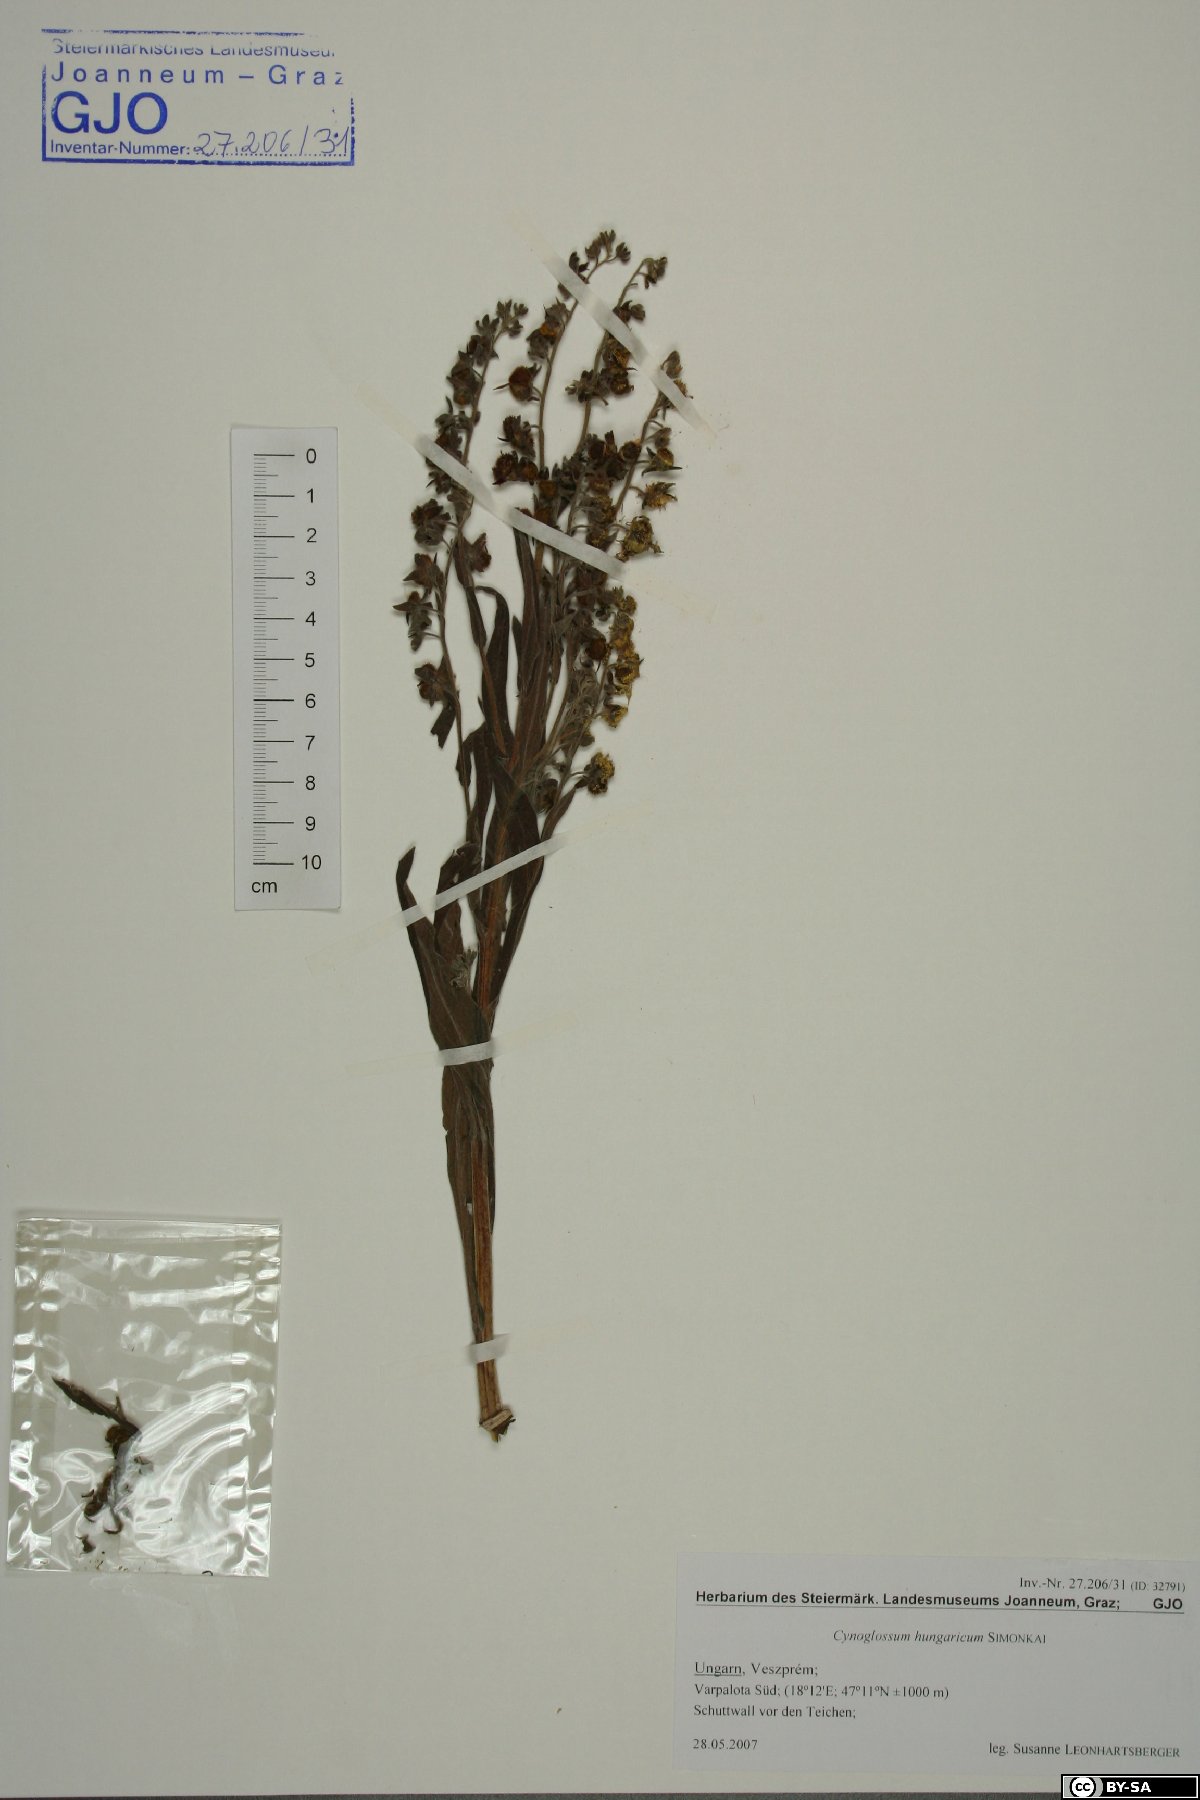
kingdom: Plantae
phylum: Tracheophyta
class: Magnoliopsida
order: Boraginales
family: Boraginaceae
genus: Cynoglossum
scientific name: Cynoglossum montanum
